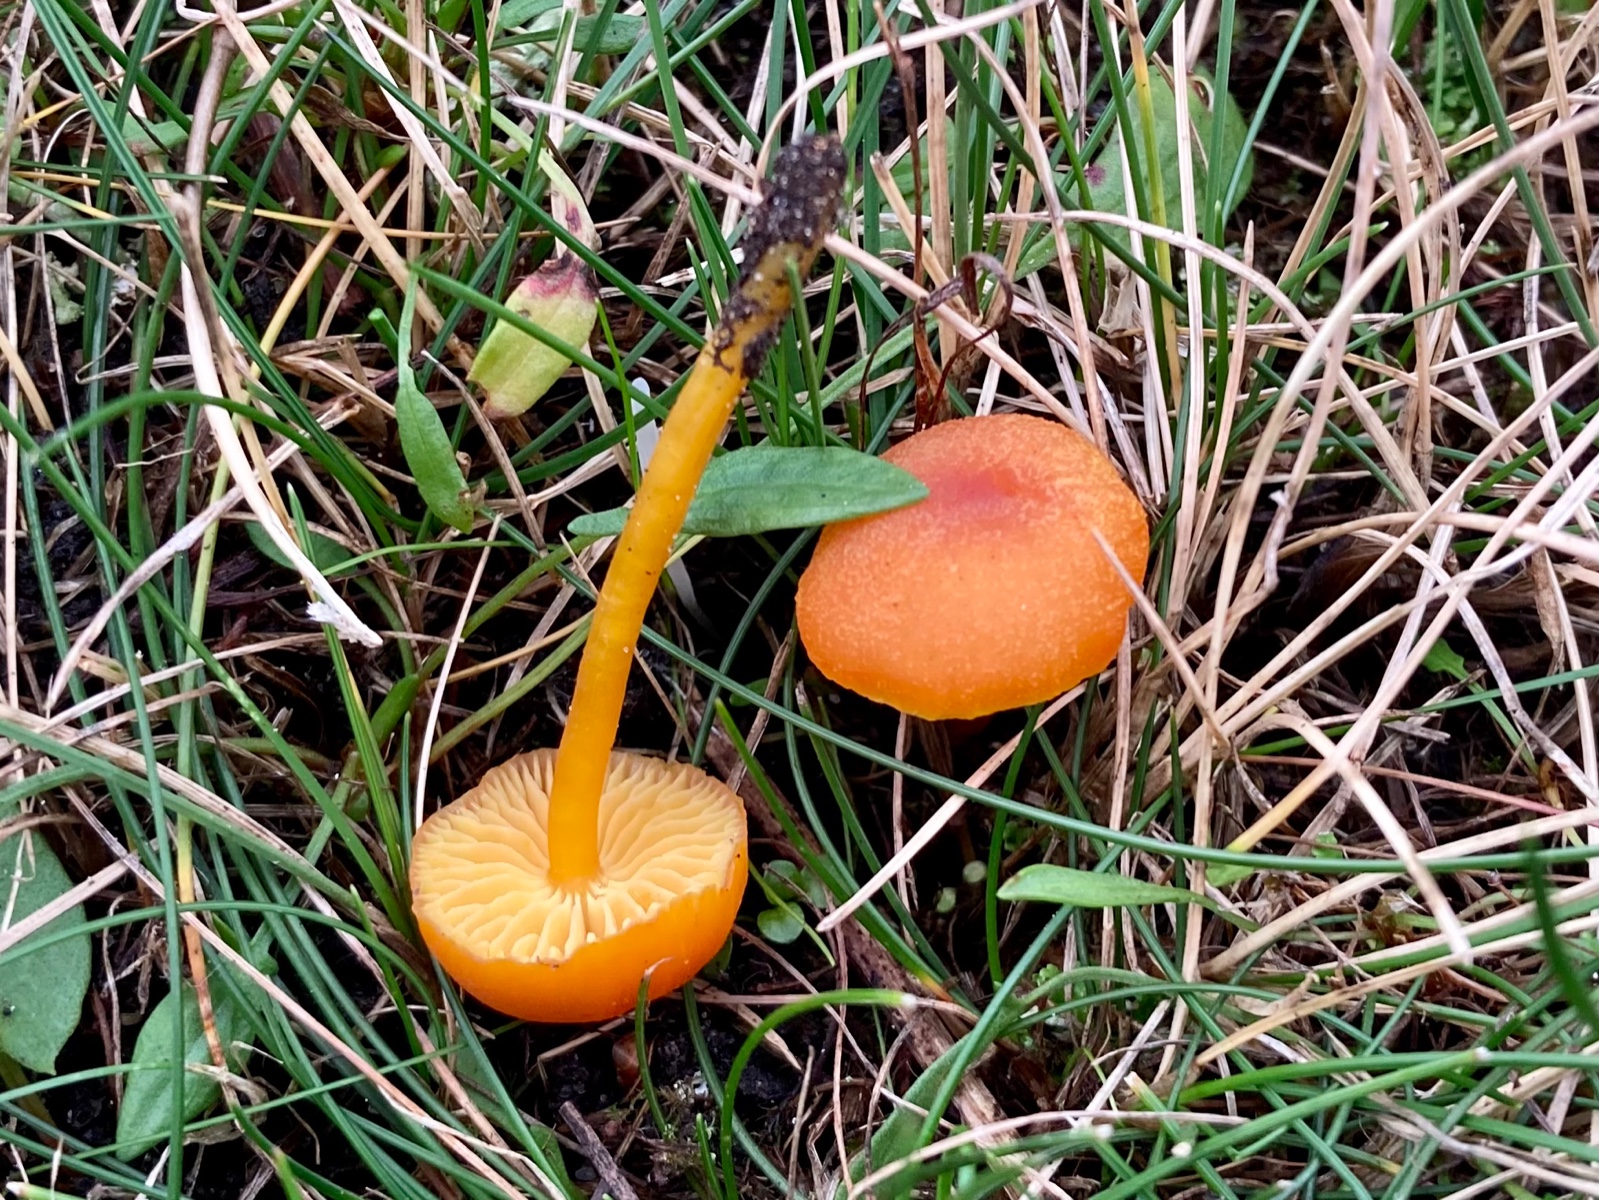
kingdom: Fungi
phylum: Basidiomycota
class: Agaricomycetes
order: Agaricales
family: Hygrophoraceae
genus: Hygrocybe
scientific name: Hygrocybe miniata
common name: mønje-vokshat
